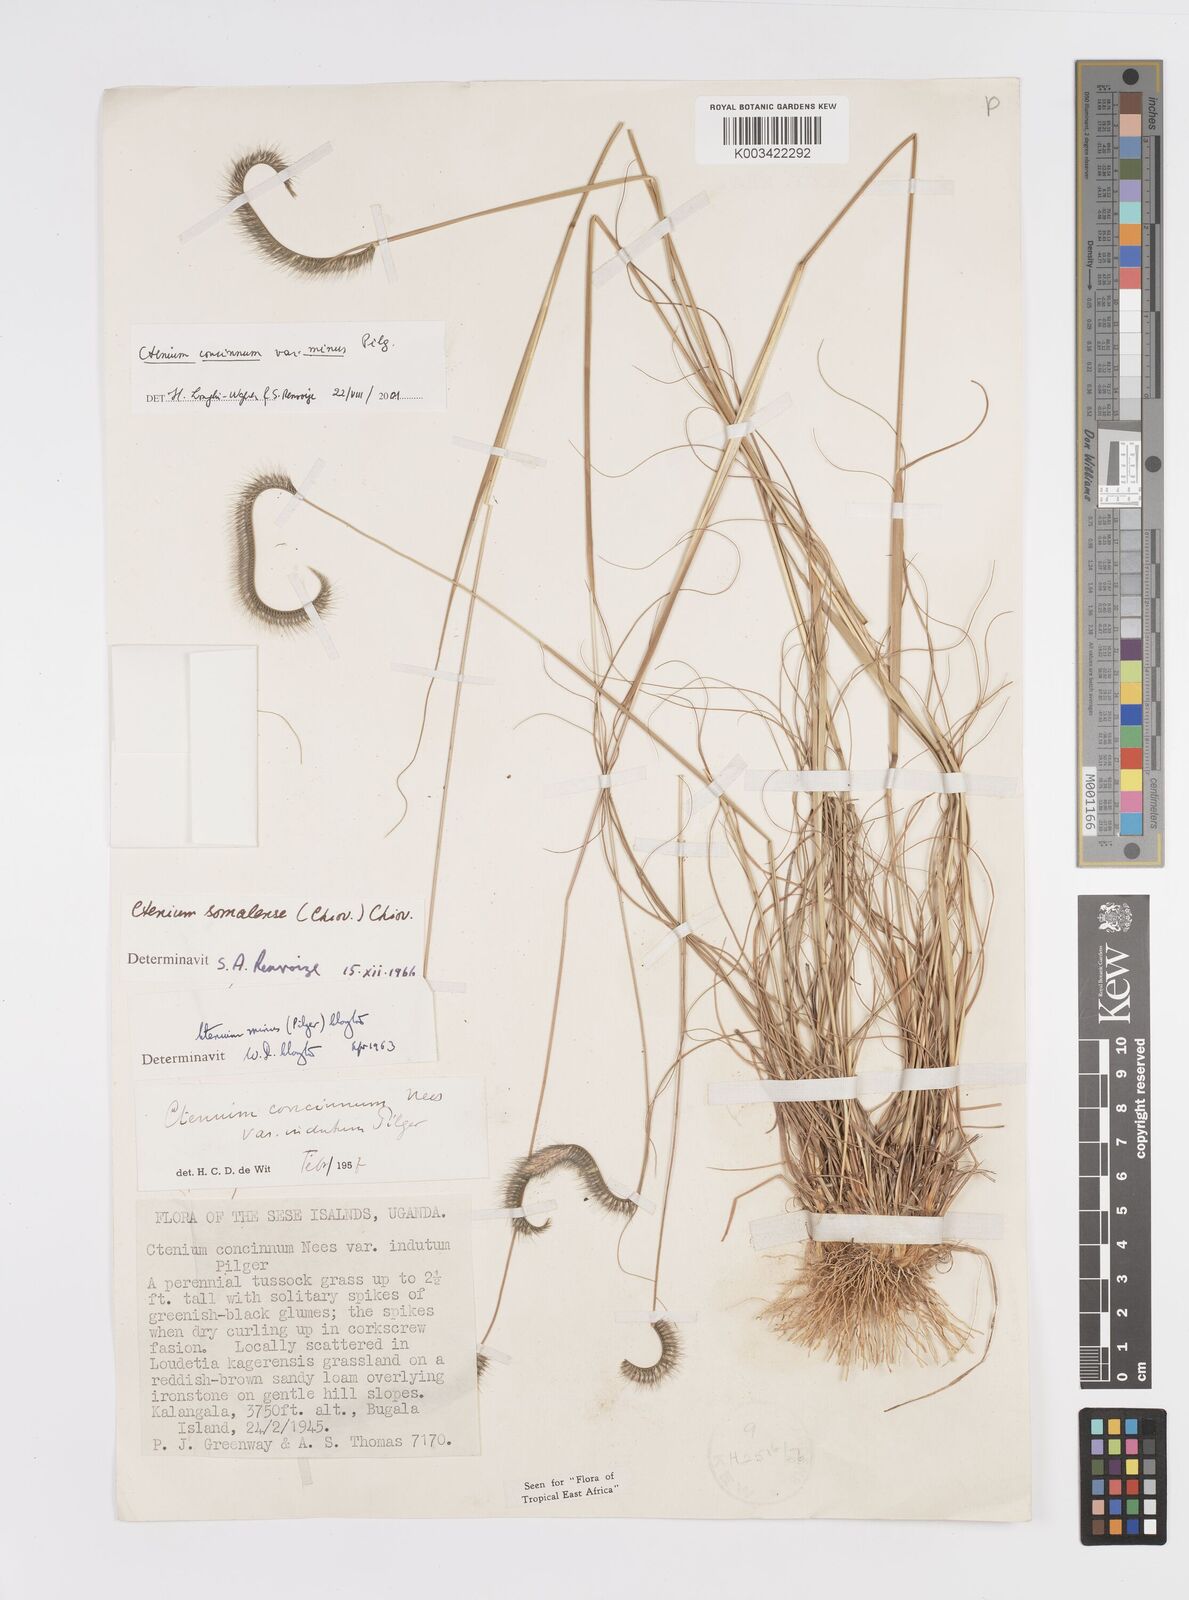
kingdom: Plantae
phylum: Tracheophyta
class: Liliopsida
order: Poales
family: Poaceae
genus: Ctenium
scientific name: Ctenium concinnum
